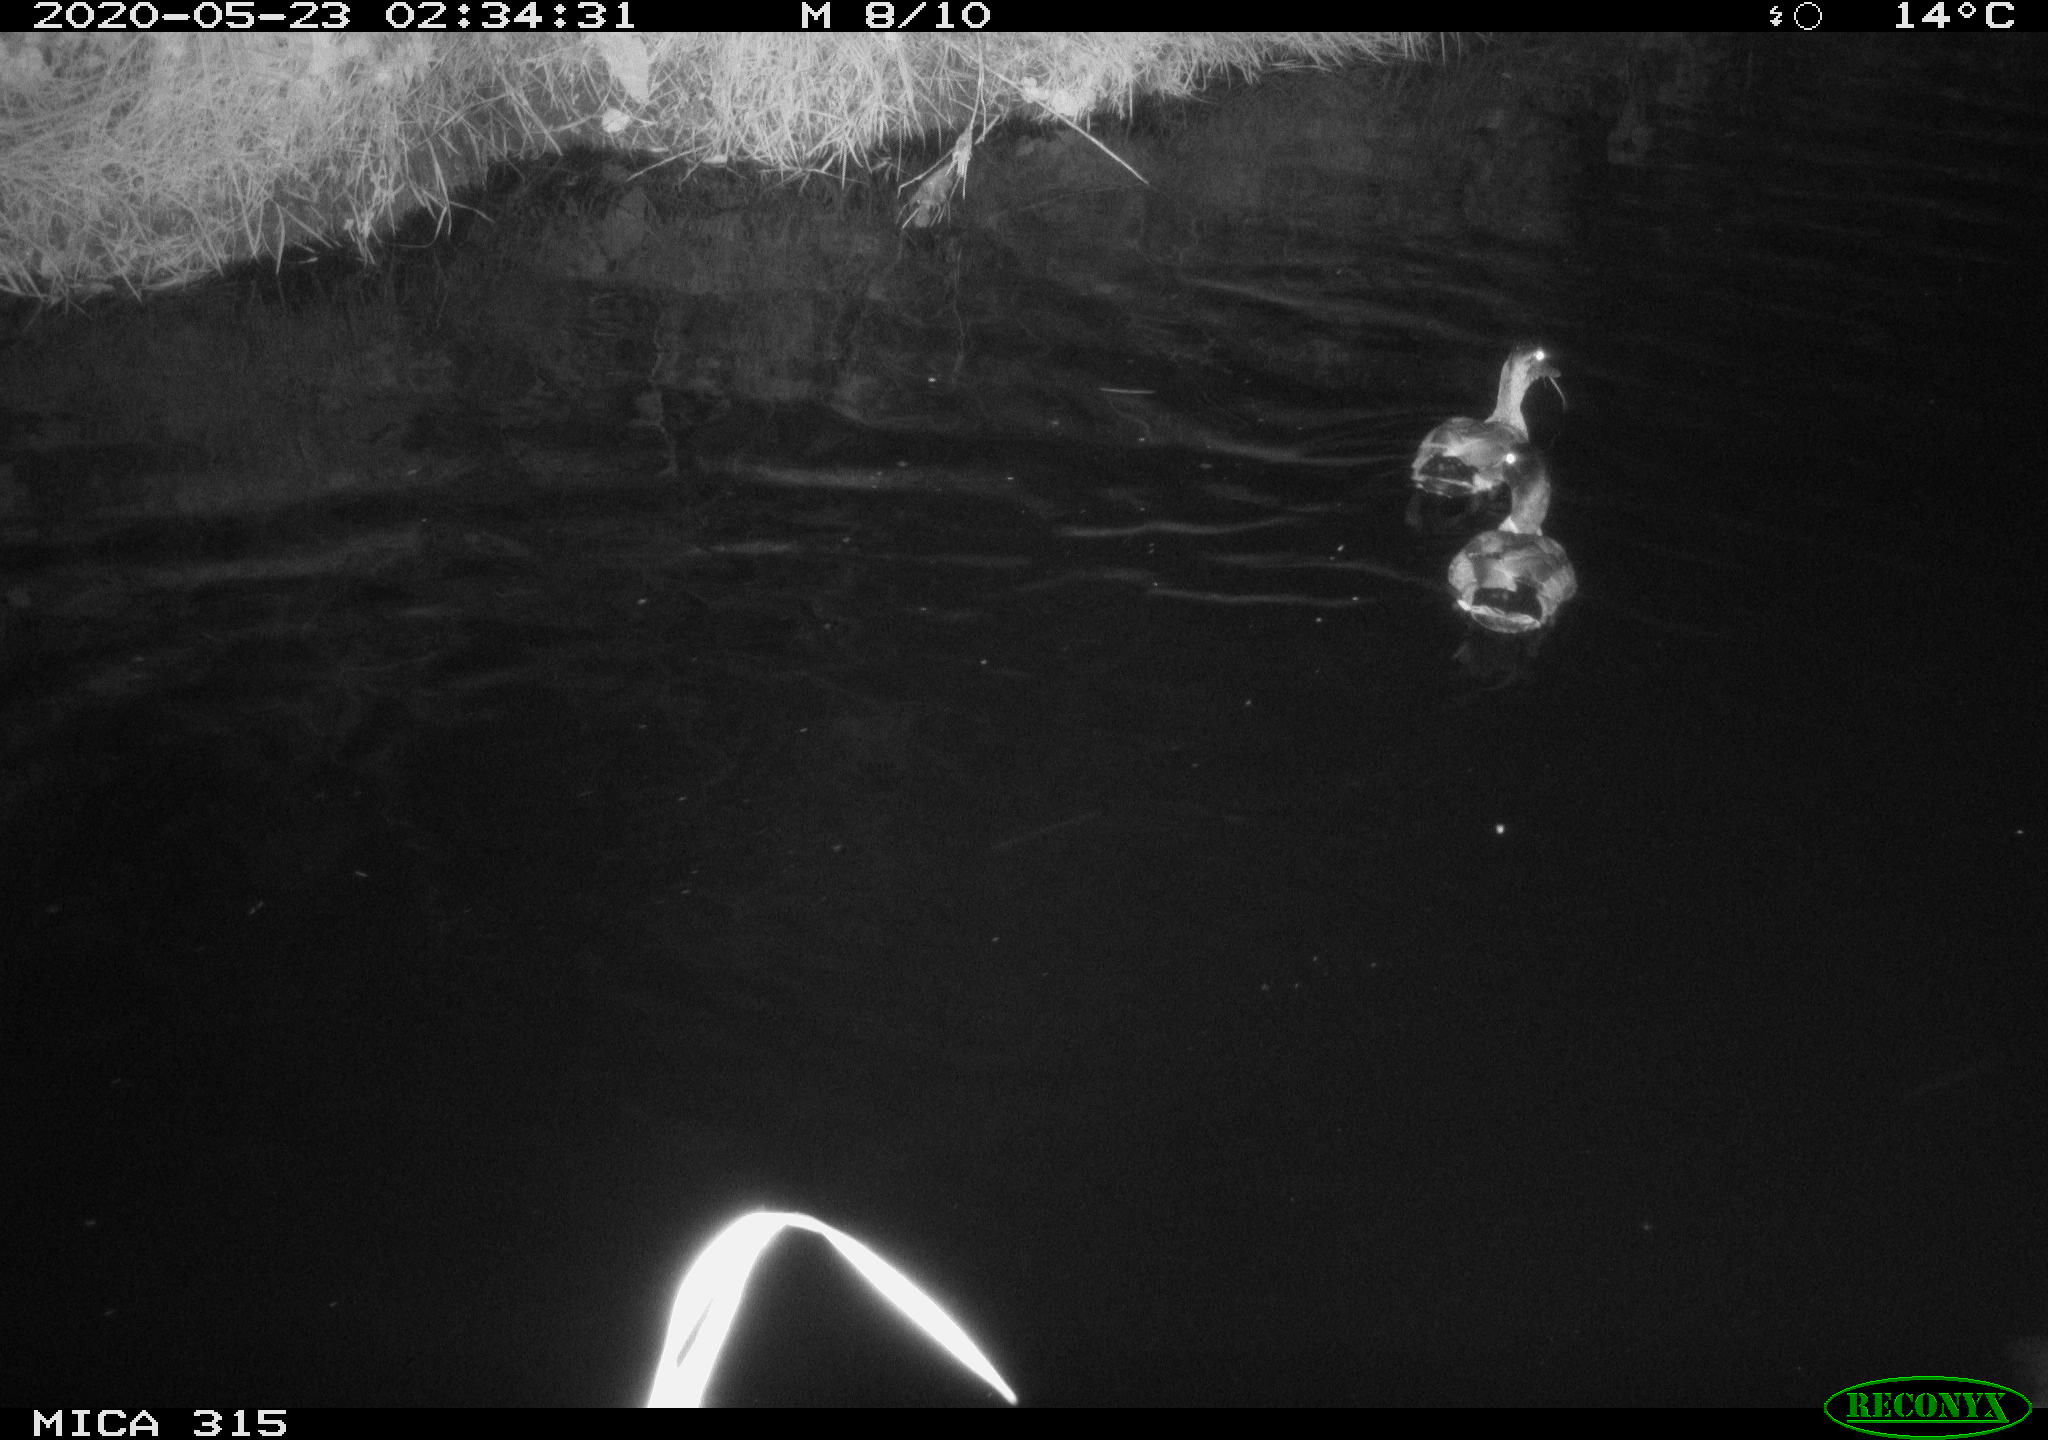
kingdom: Animalia
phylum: Chordata
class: Aves
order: Anseriformes
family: Anatidae
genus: Anas
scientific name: Anas platyrhynchos
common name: Mallard
